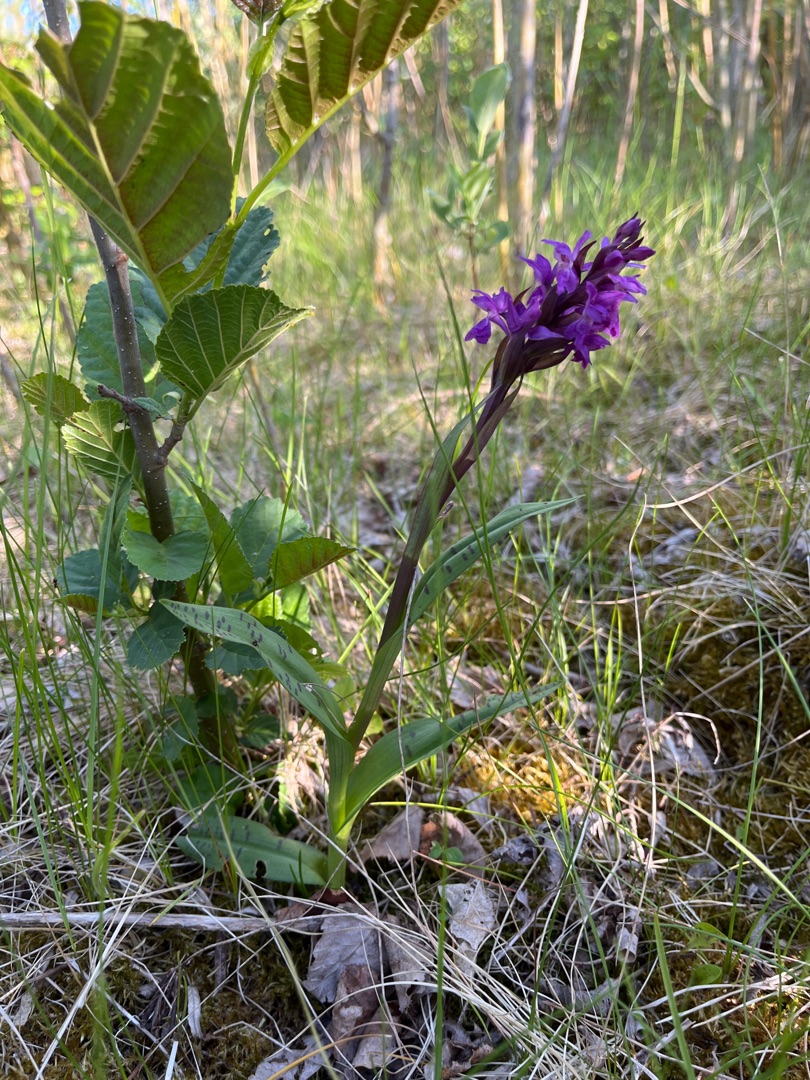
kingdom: Plantae
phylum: Tracheophyta
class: Liliopsida
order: Asparagales
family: Orchidaceae
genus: Dactylorhiza
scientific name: Dactylorhiza majalis
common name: Maj-gøgeurt
